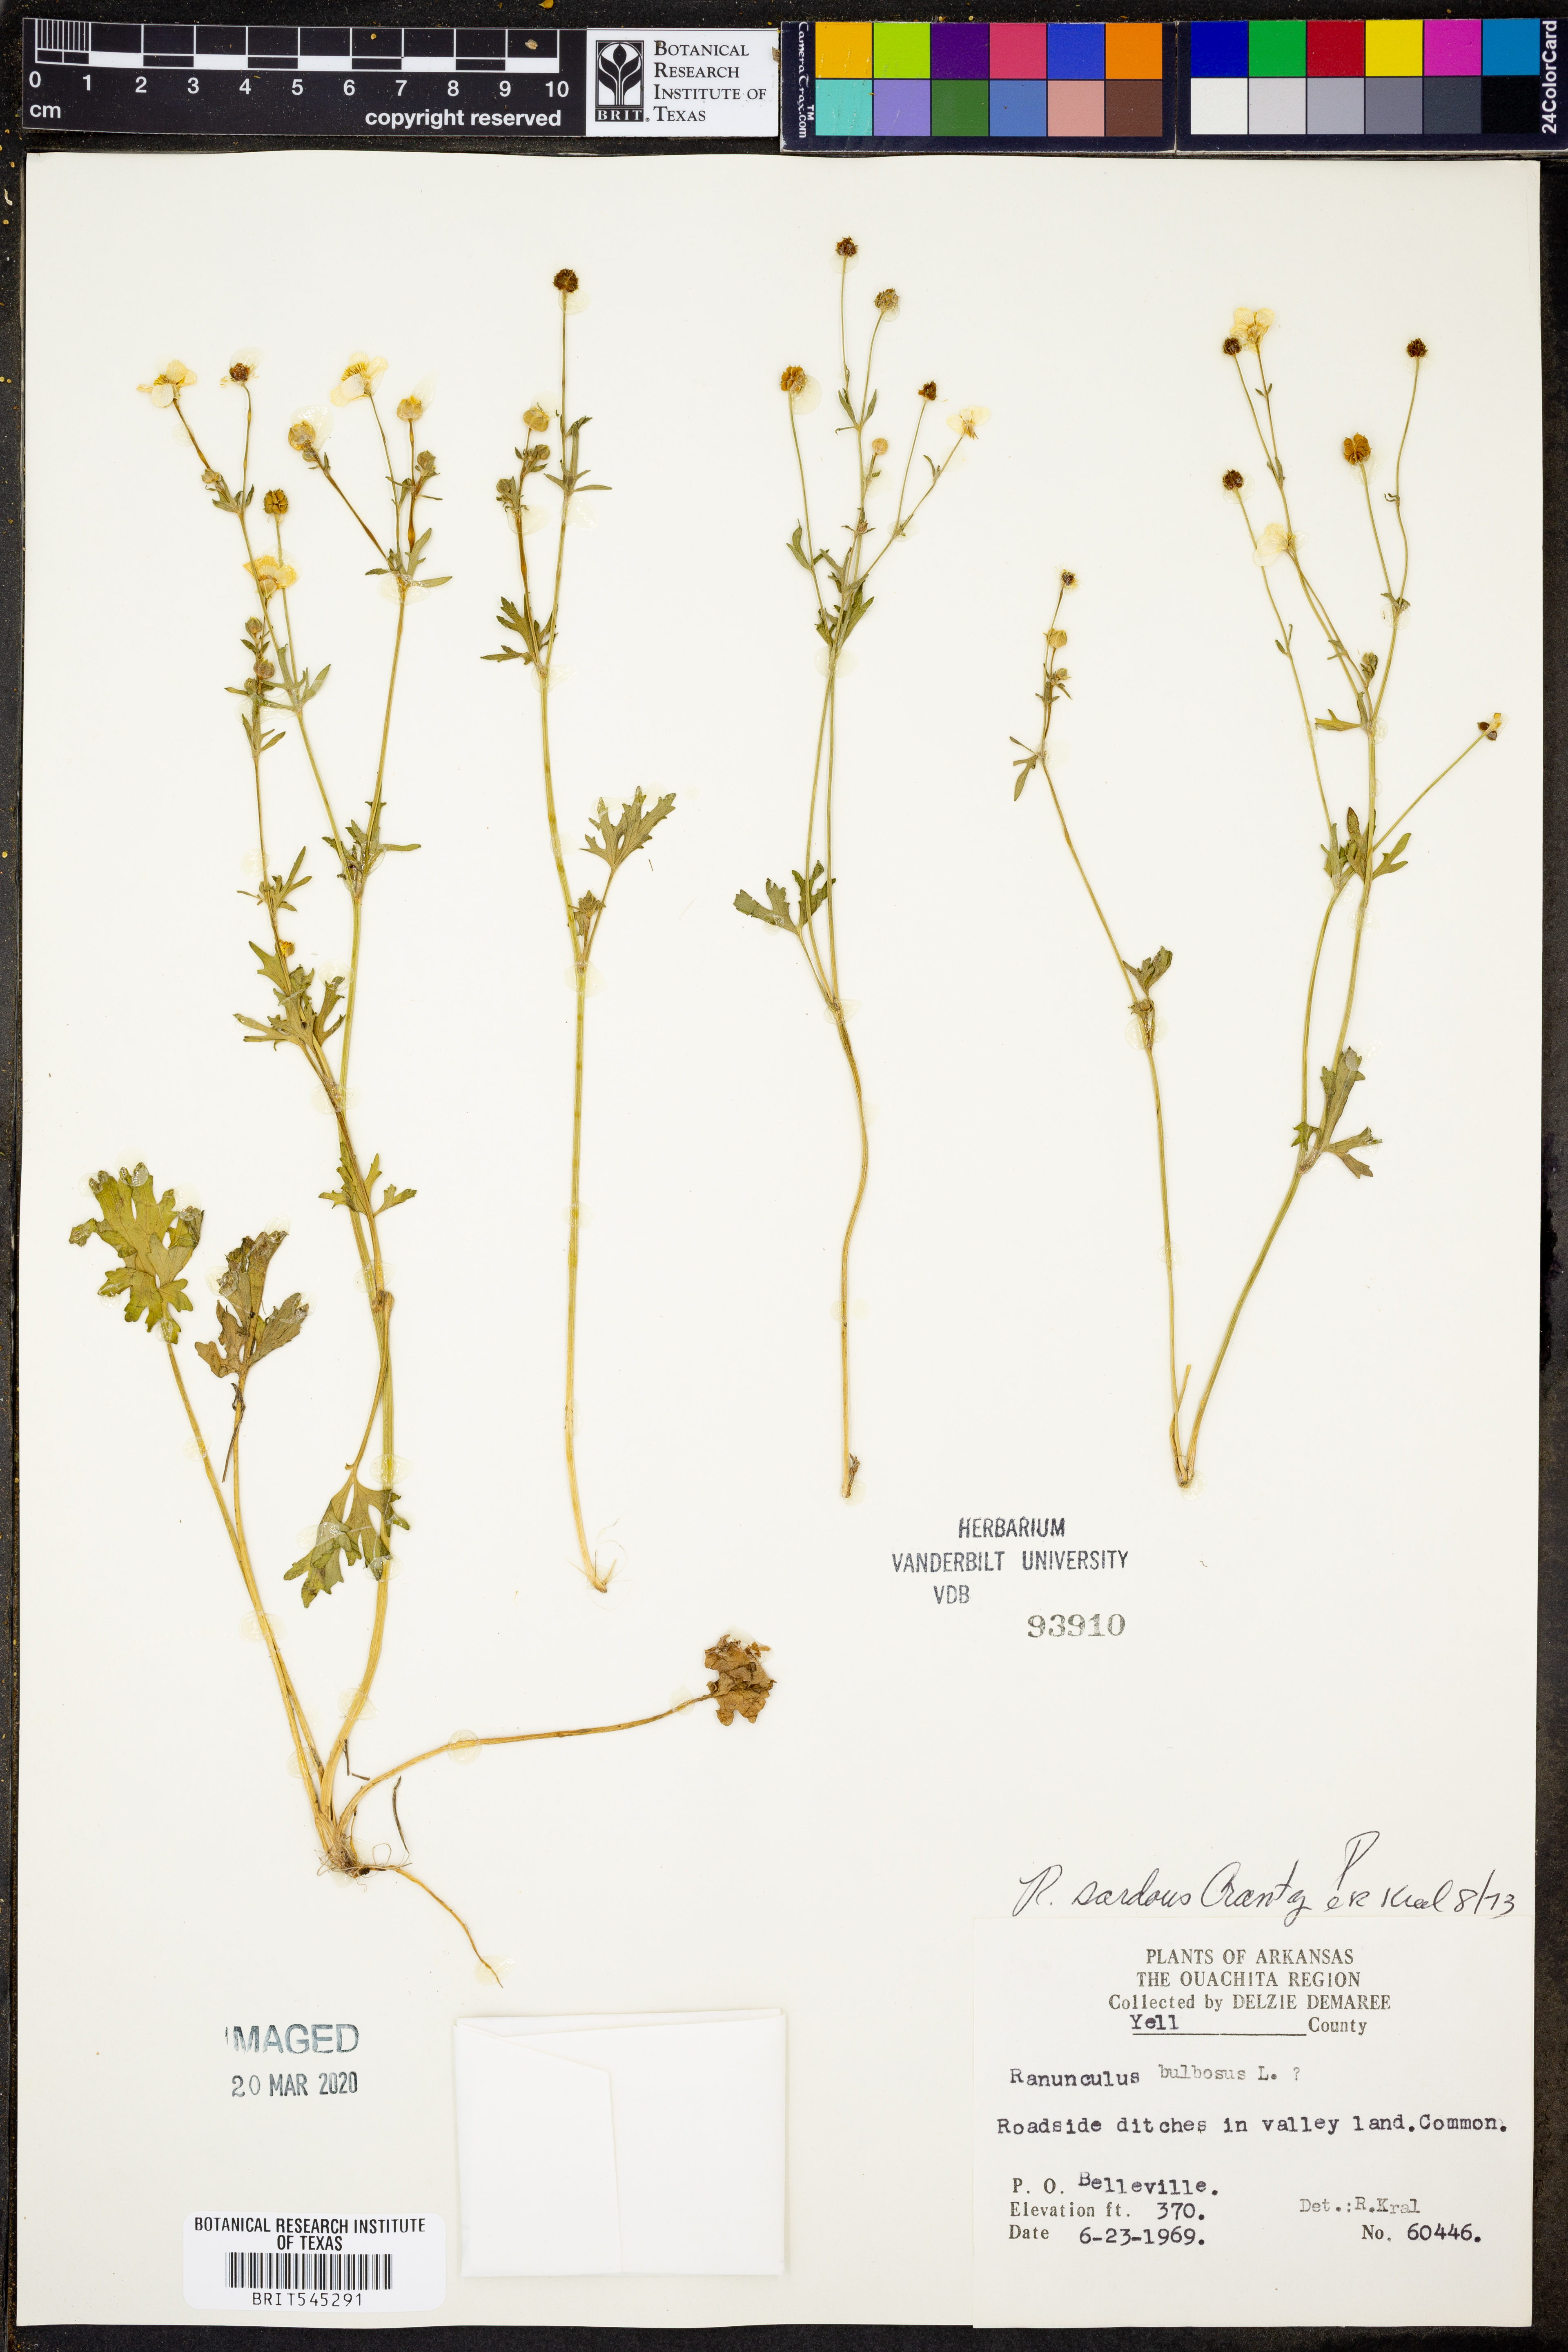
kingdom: Plantae
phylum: Tracheophyta
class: Magnoliopsida
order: Ranunculales
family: Ranunculaceae
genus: Ranunculus
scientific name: Ranunculus sardous
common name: Hairy buttercup
